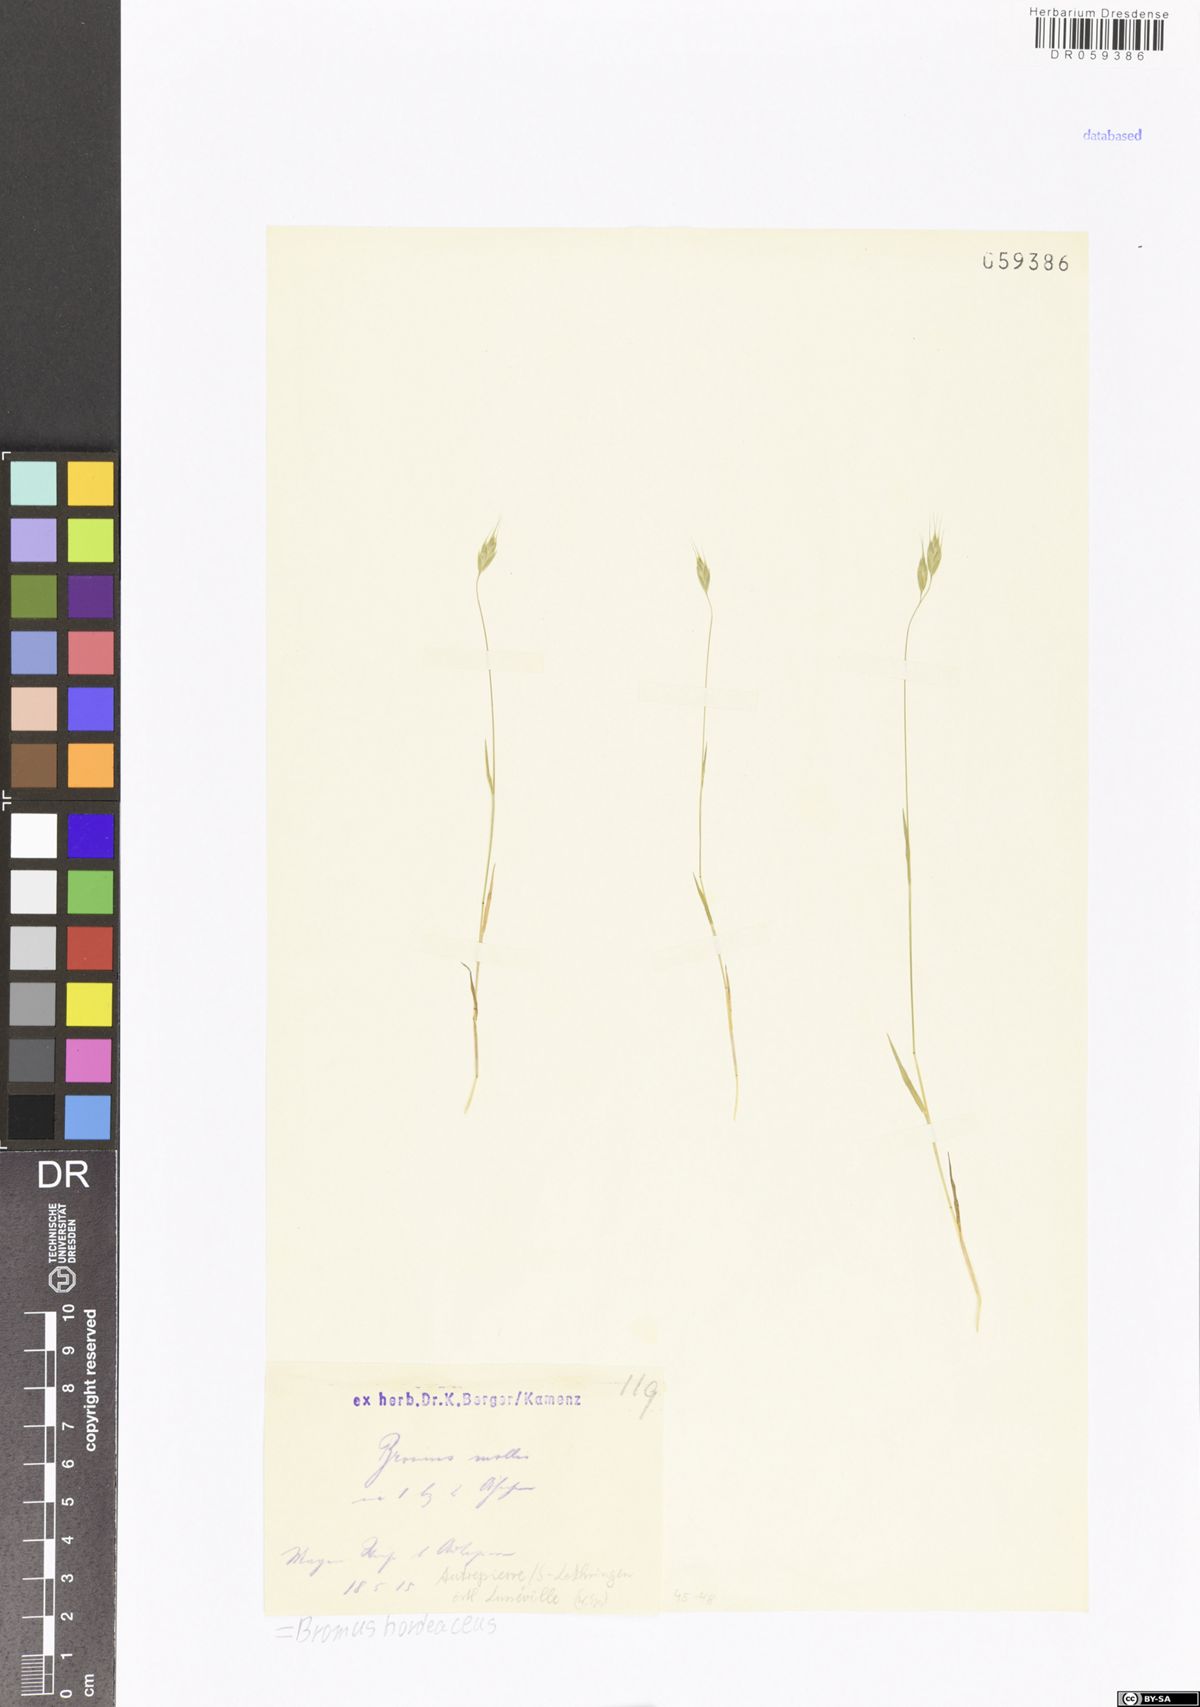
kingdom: Plantae
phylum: Tracheophyta
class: Liliopsida
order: Poales
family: Poaceae
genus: Bromus
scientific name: Bromus hordeaceus
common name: Soft brome
